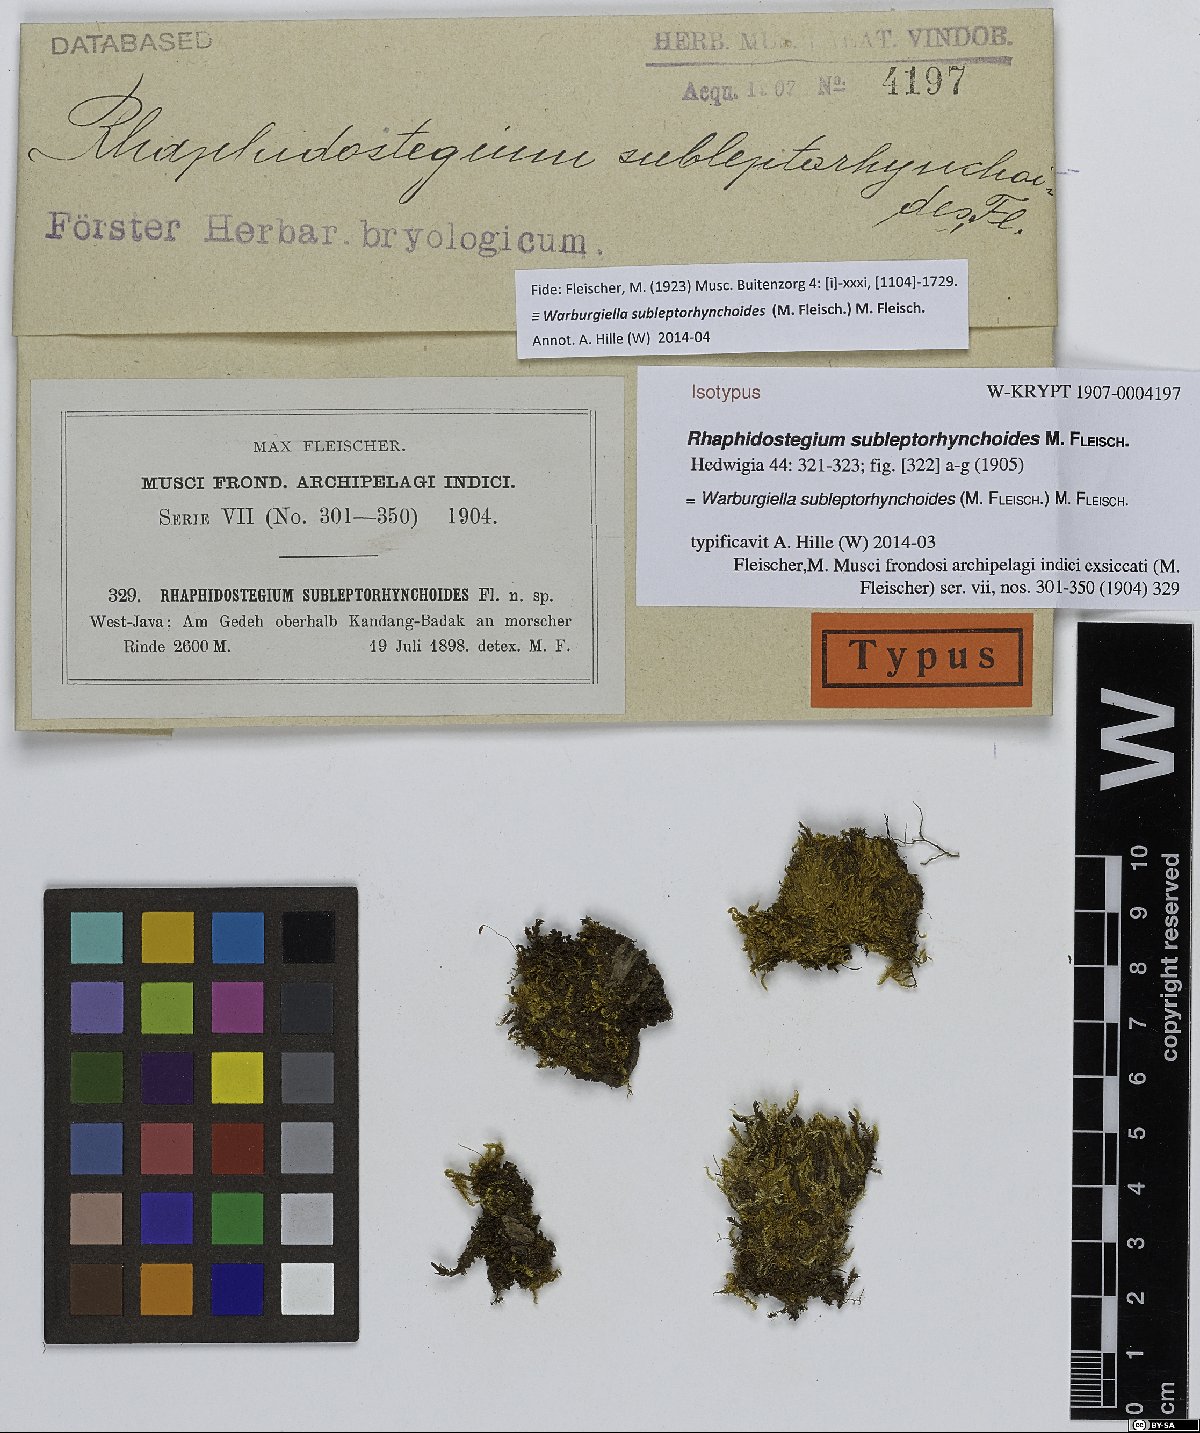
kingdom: Plantae
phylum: Bryophyta
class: Bryopsida
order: Hypnales
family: Sematophyllaceae
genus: Warburgiella
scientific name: Warburgiella leptorhynchoides
